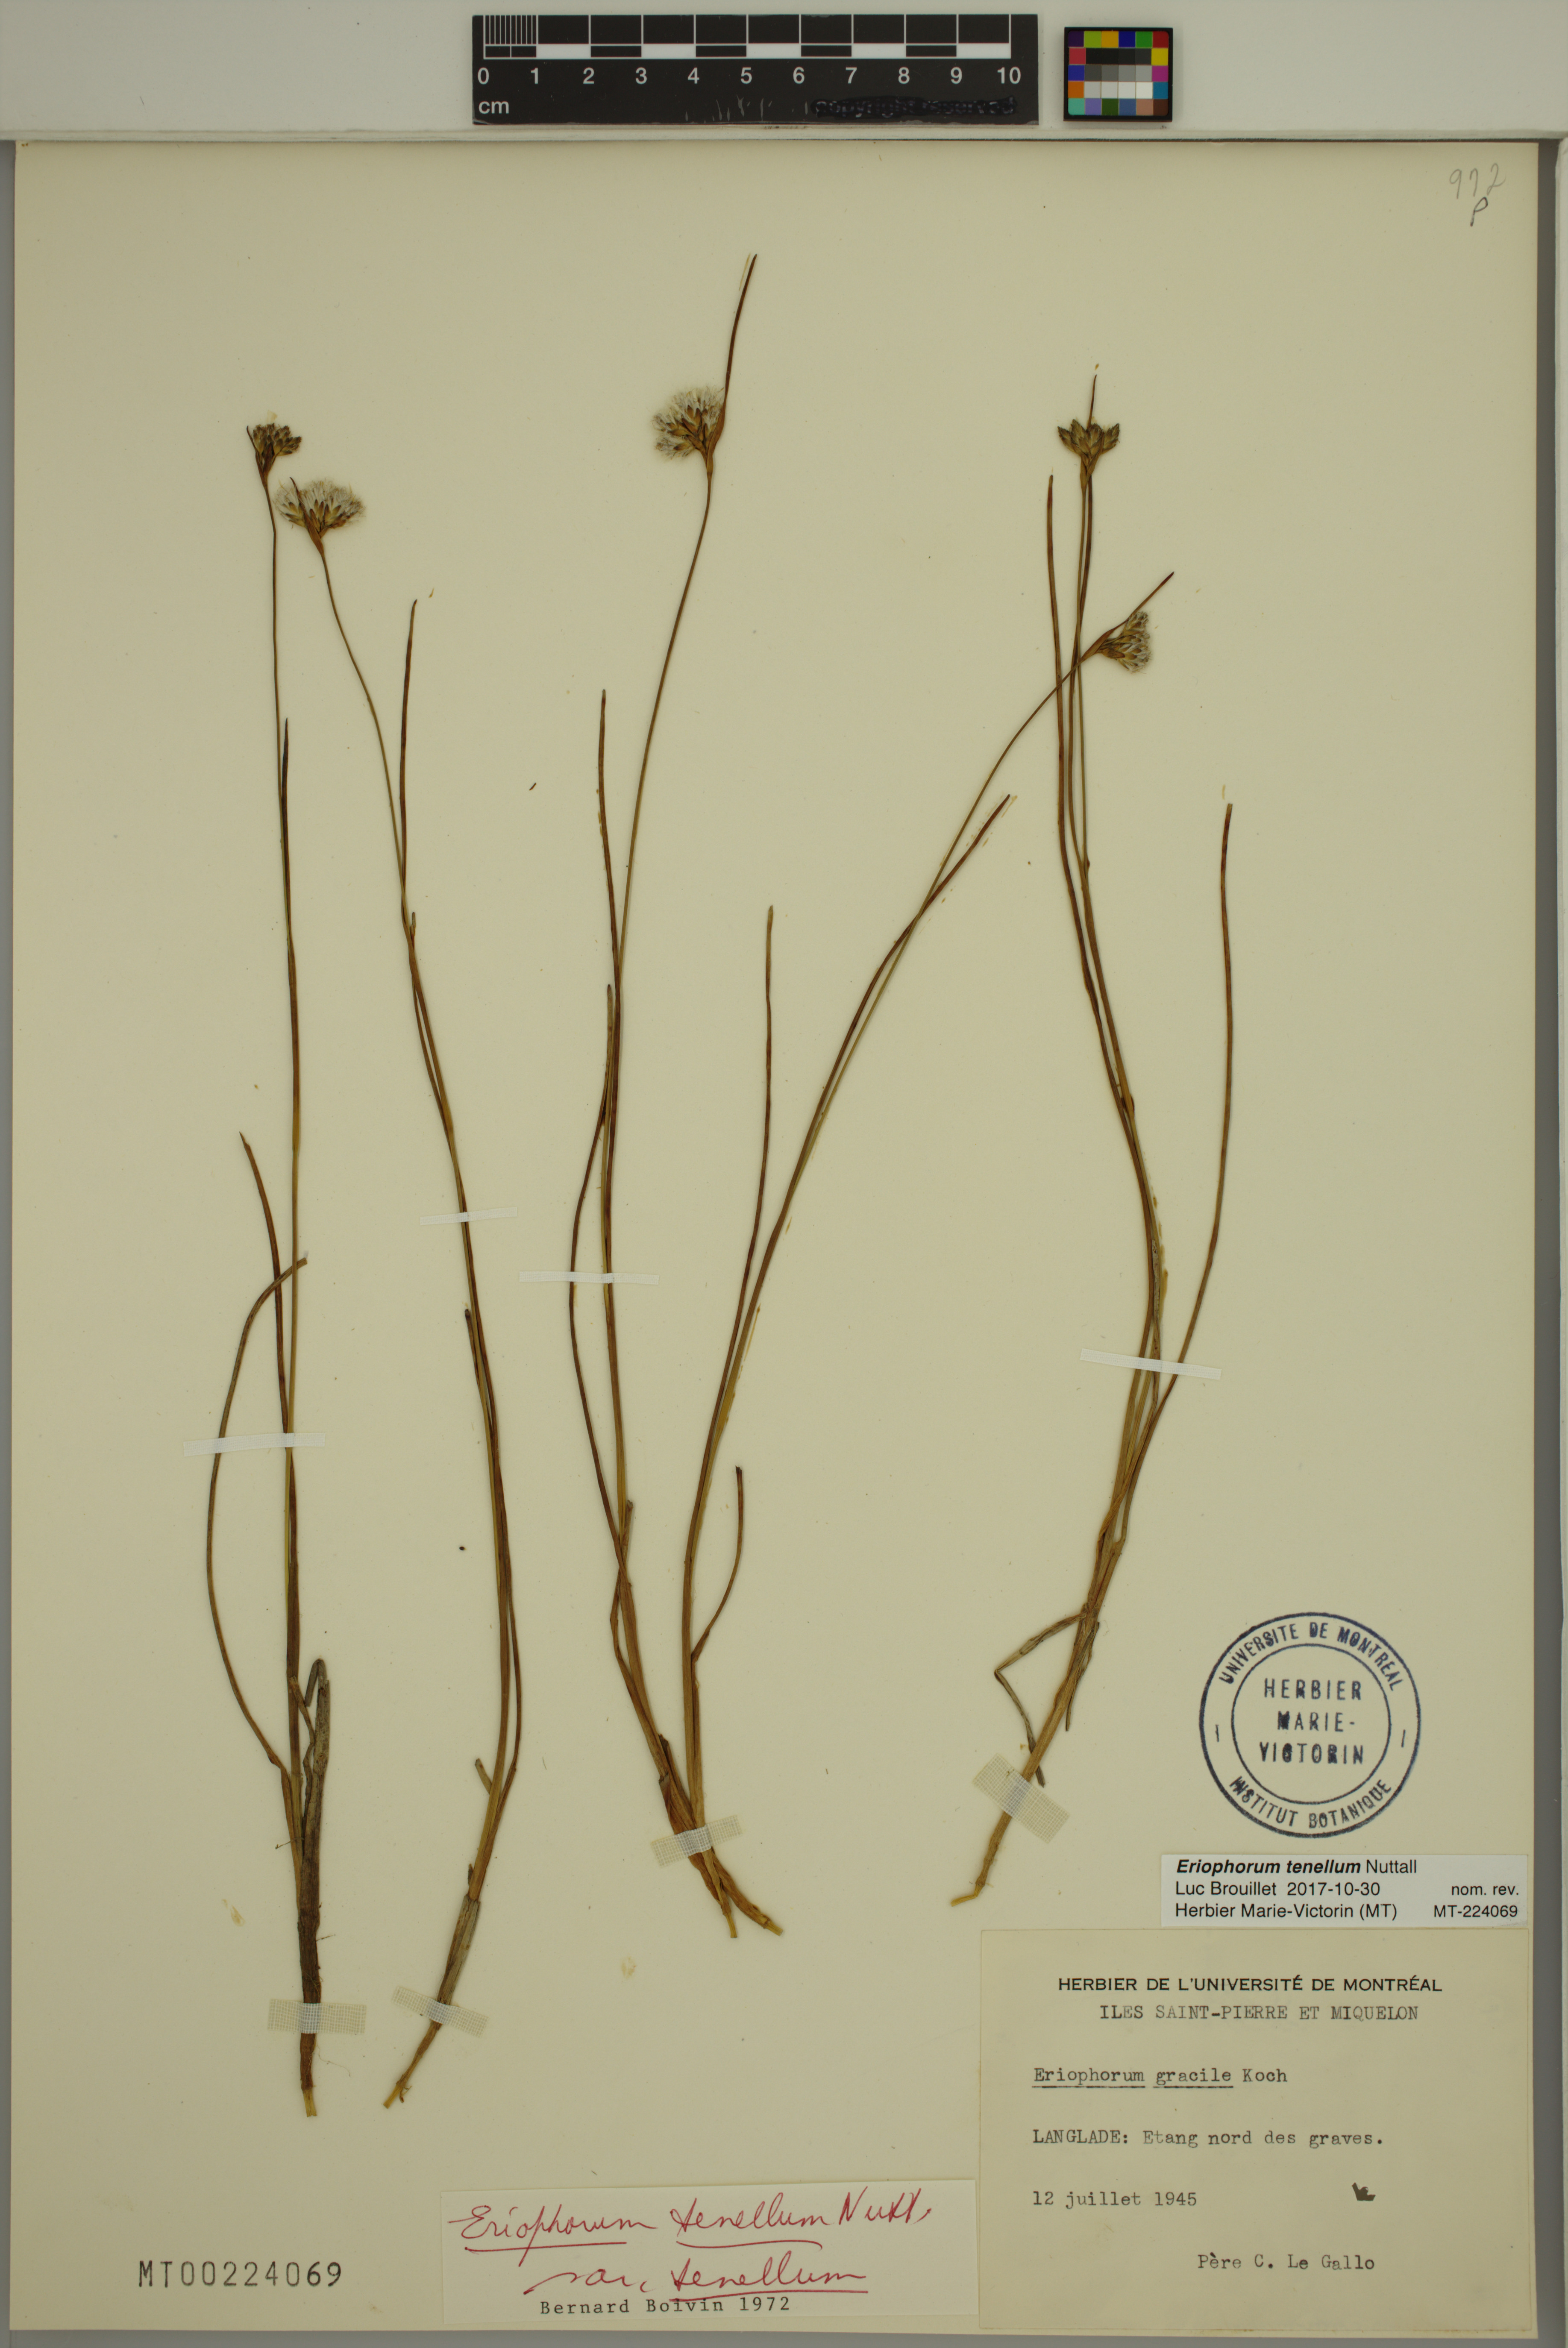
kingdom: Plantae
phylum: Tracheophyta
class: Liliopsida
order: Poales
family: Cyperaceae
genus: Eriophorum
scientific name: Eriophorum tenellum
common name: Few-nerved cottongrass
